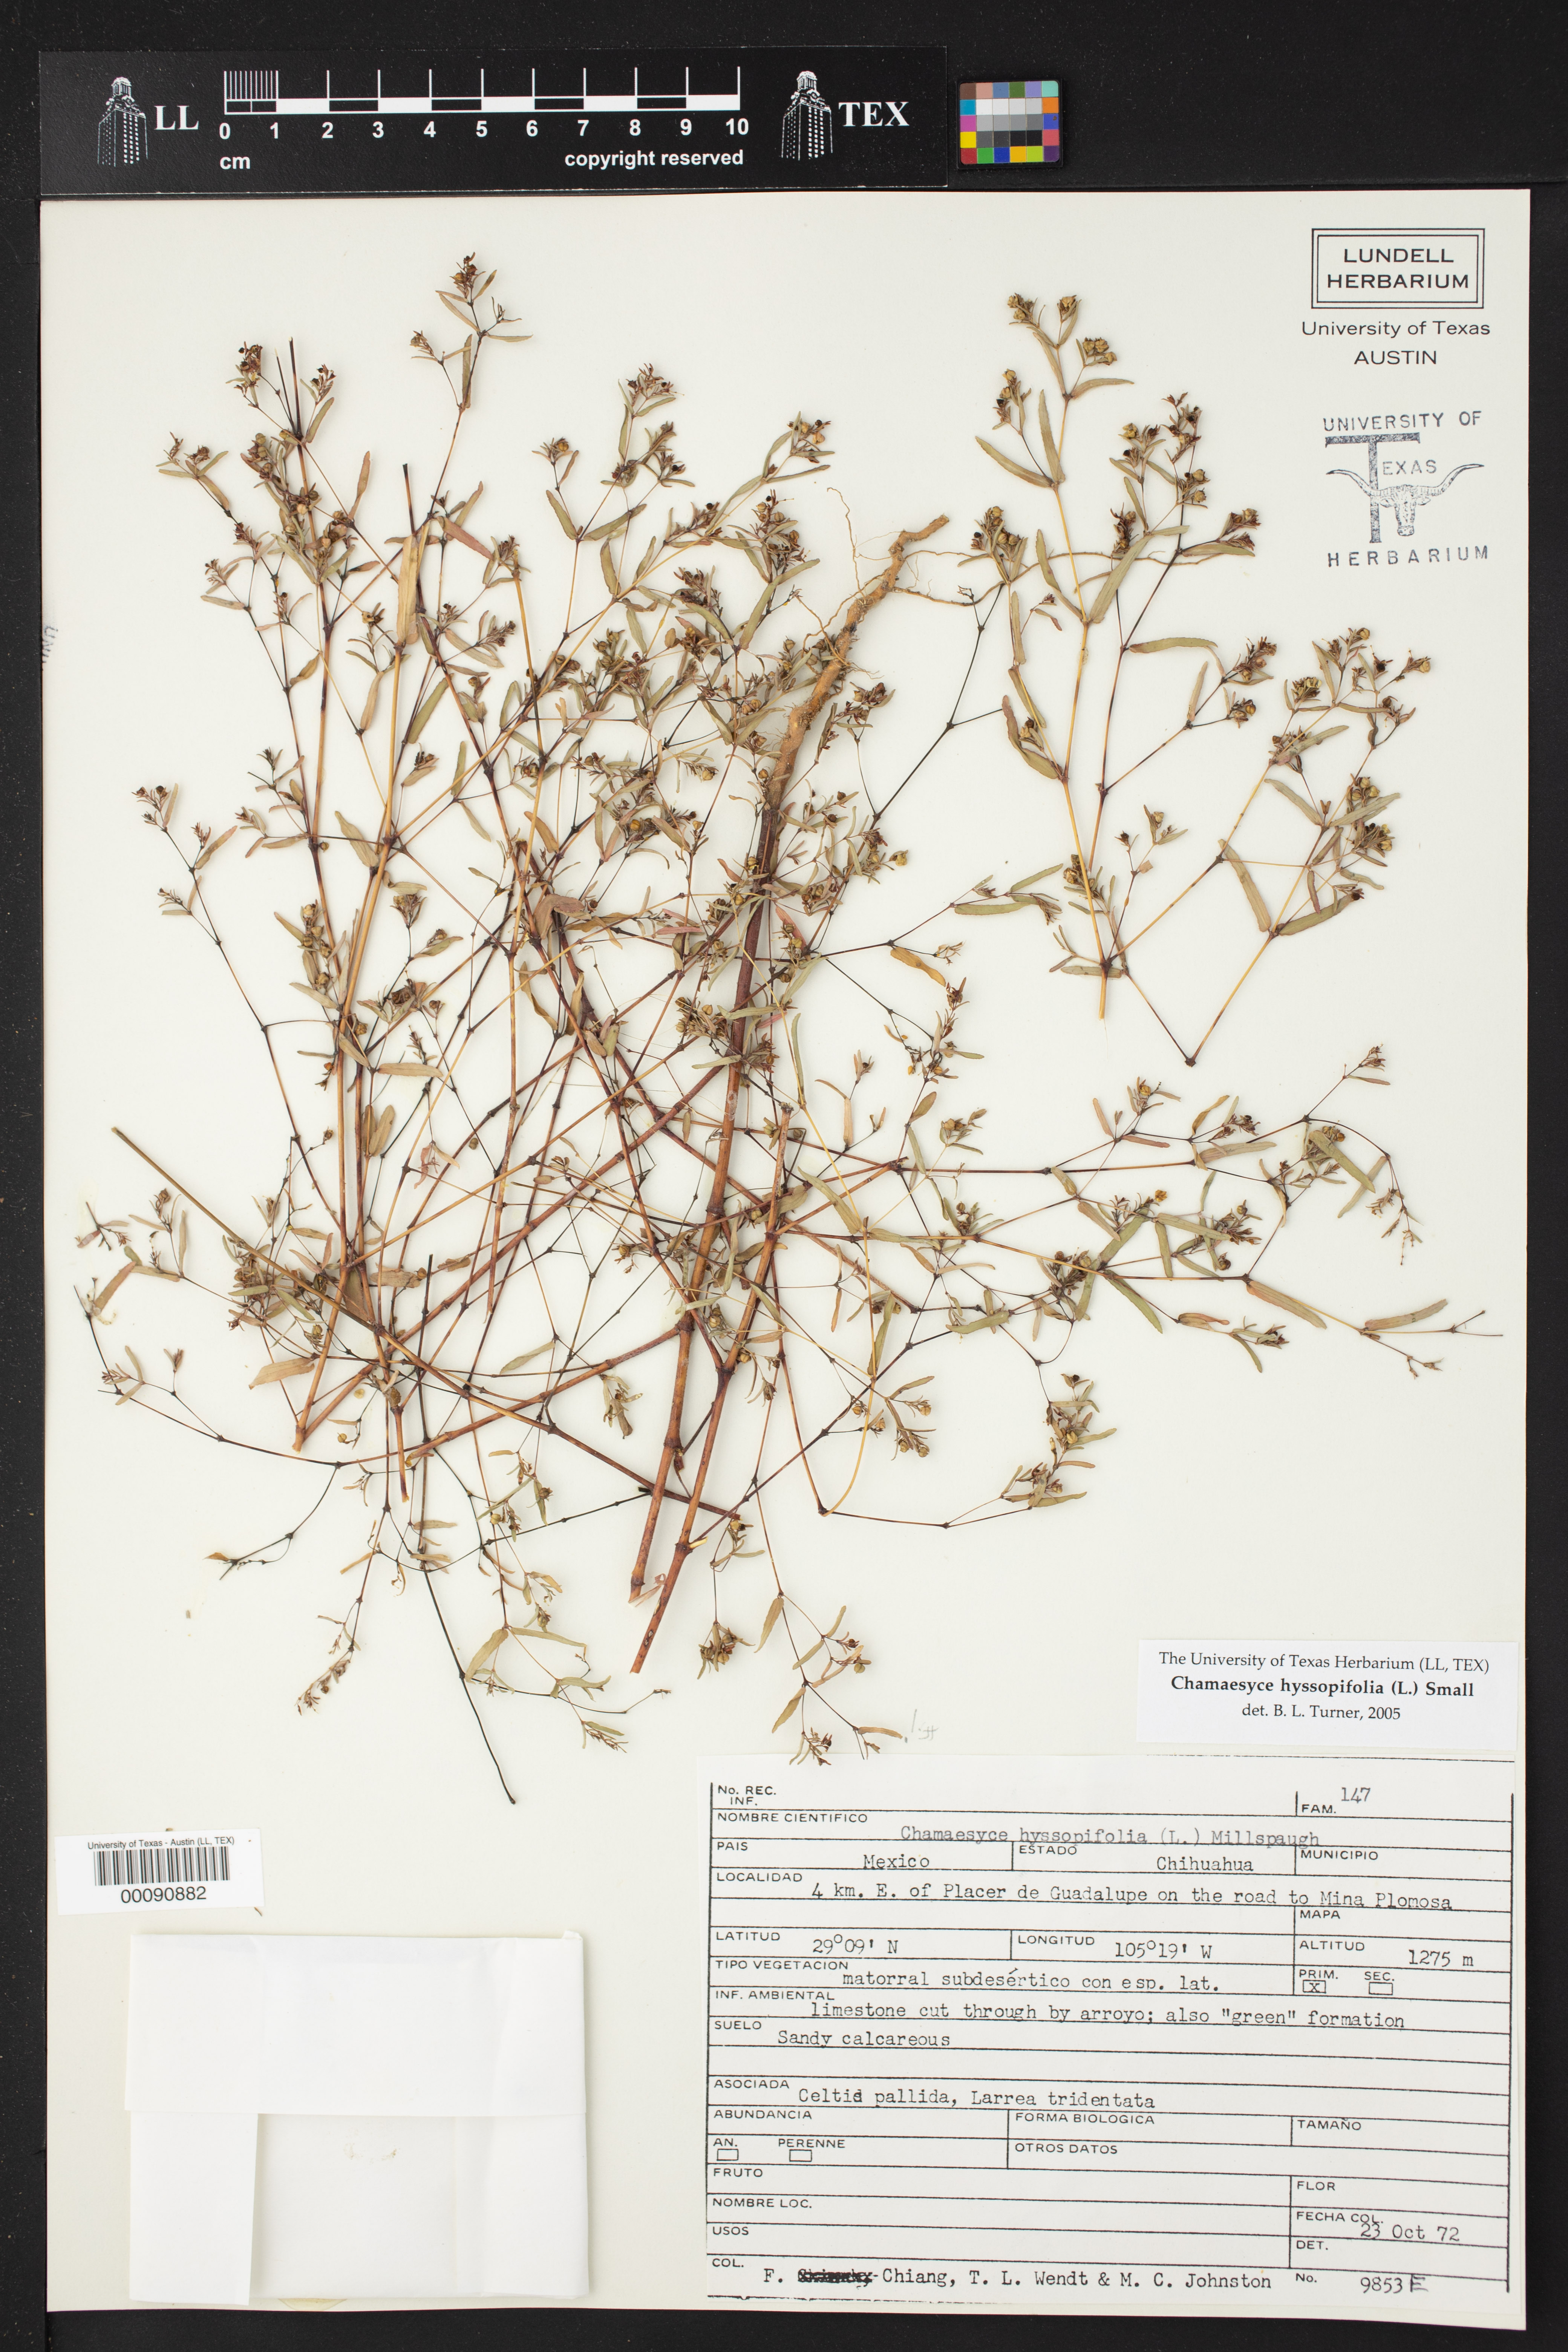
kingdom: Plantae
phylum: Tracheophyta
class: Magnoliopsida
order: Malpighiales
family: Euphorbiaceae
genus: Euphorbia
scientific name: Euphorbia hyssopifolia
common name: Hyssopleaf sandmat
